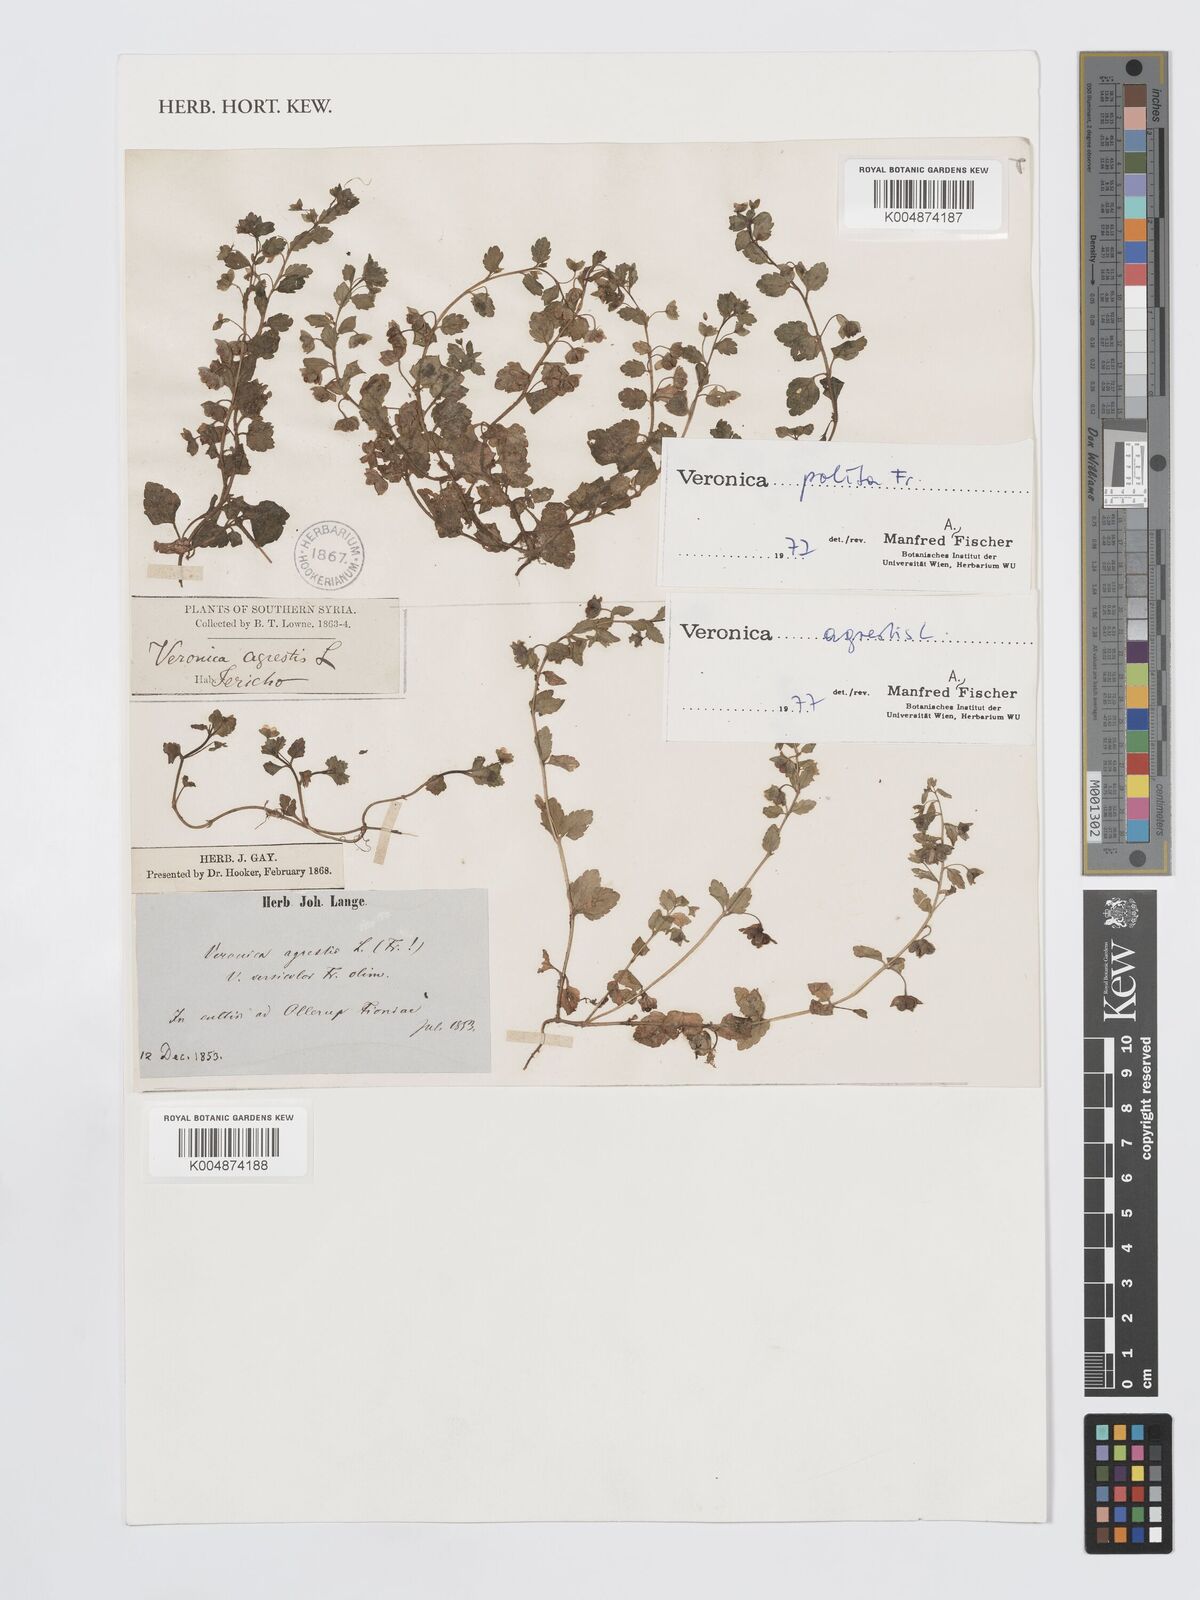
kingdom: Plantae
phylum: Tracheophyta
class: Magnoliopsida
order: Lamiales
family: Plantaginaceae
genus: Veronica
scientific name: Veronica polita
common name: Grey field-speedwell
